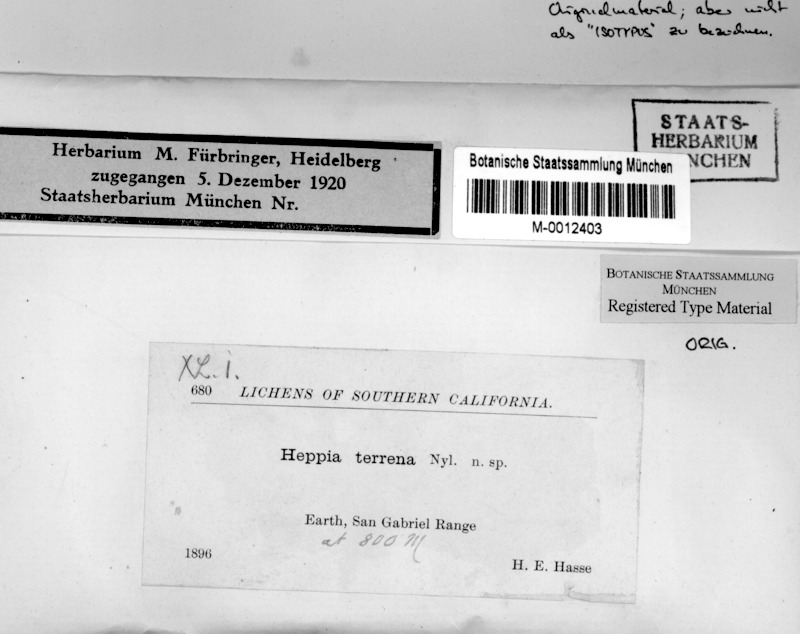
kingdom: Fungi
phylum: Ascomycota
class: Lichinomycetes
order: Lichinales
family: Peltulaceae
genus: Peltula
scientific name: Peltula patellata
